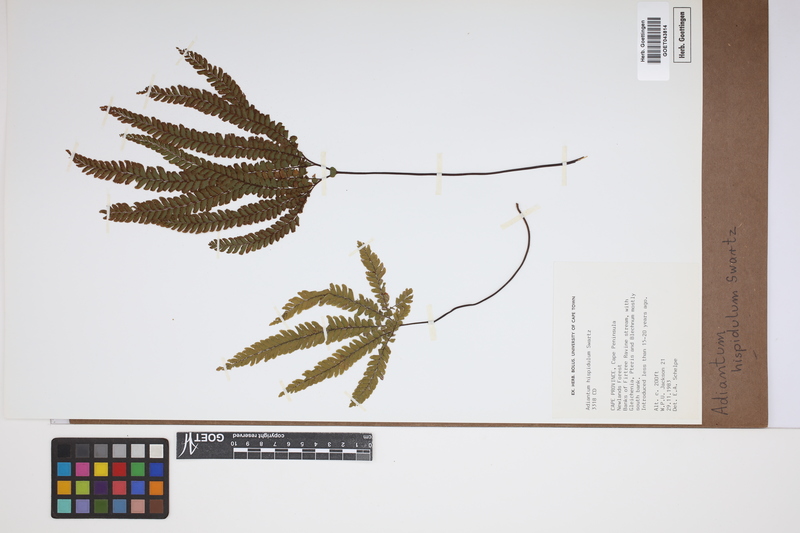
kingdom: Plantae
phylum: Tracheophyta
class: Polypodiopsida
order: Polypodiales
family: Pteridaceae
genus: Adiantum
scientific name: Adiantum hispidulum
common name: Rough maidenhair
